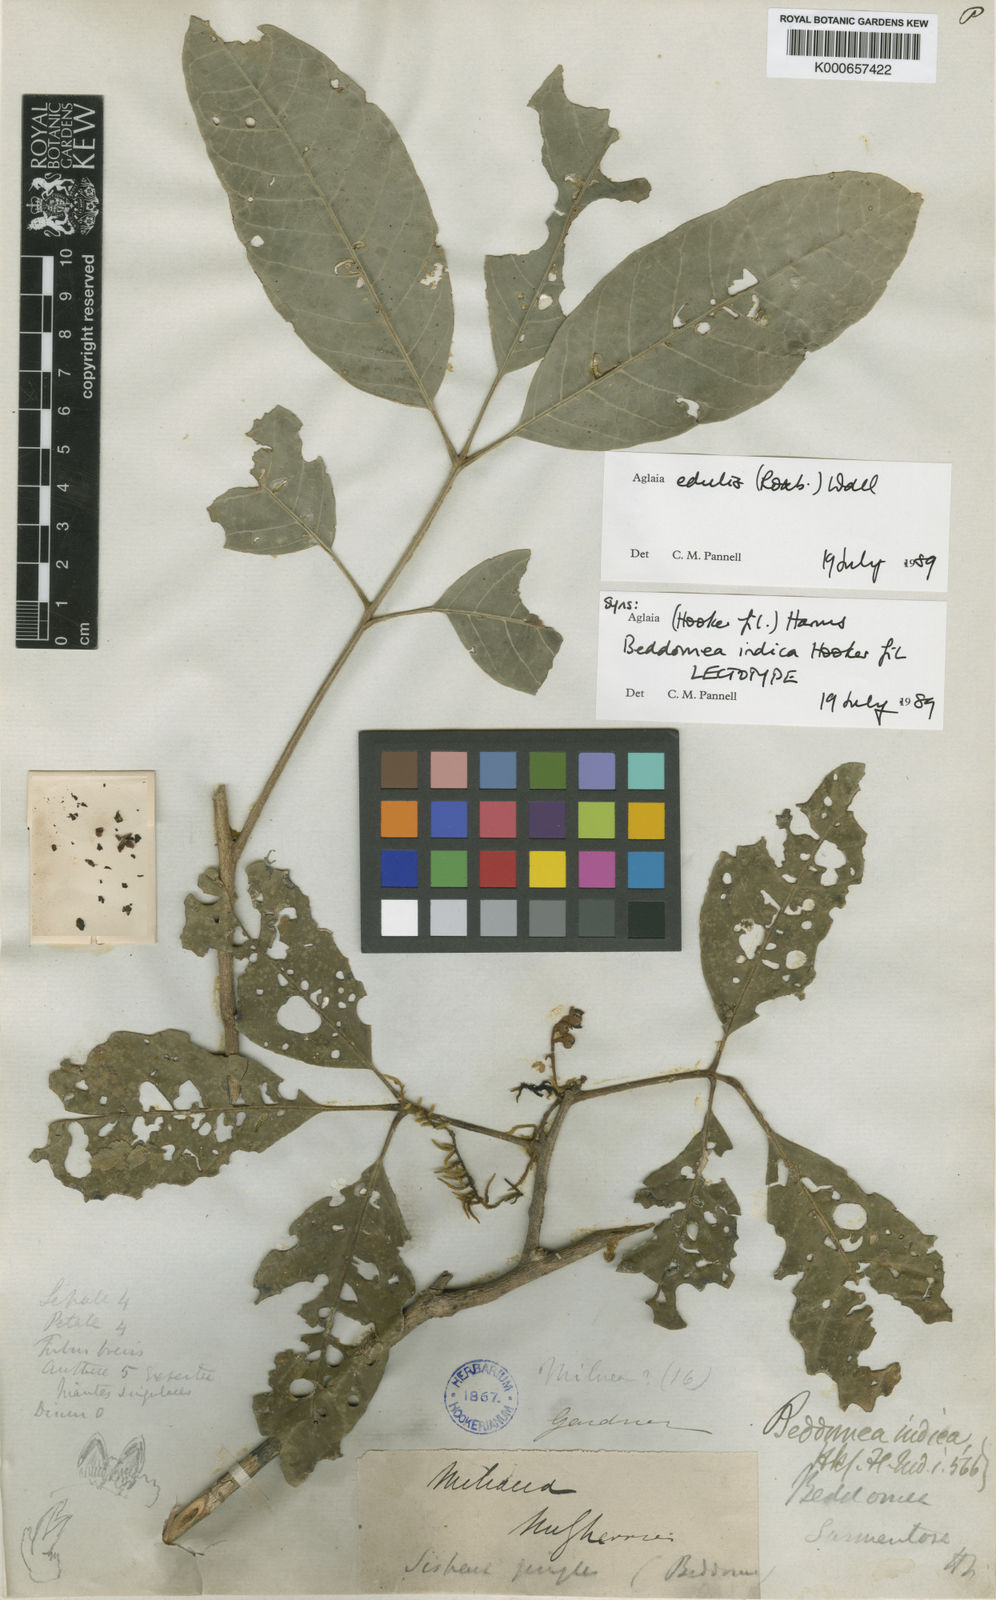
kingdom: Plantae
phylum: Tracheophyta
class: Magnoliopsida
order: Sapindales
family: Meliaceae
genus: Aglaia
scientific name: Aglaia edulis
